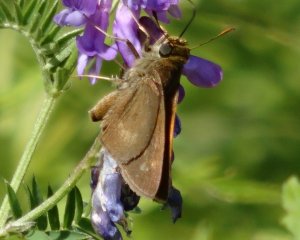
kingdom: Animalia
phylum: Arthropoda
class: Insecta
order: Lepidoptera
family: Hesperiidae
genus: Polites
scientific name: Polites egeremet
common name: Northern Broken-Dash
